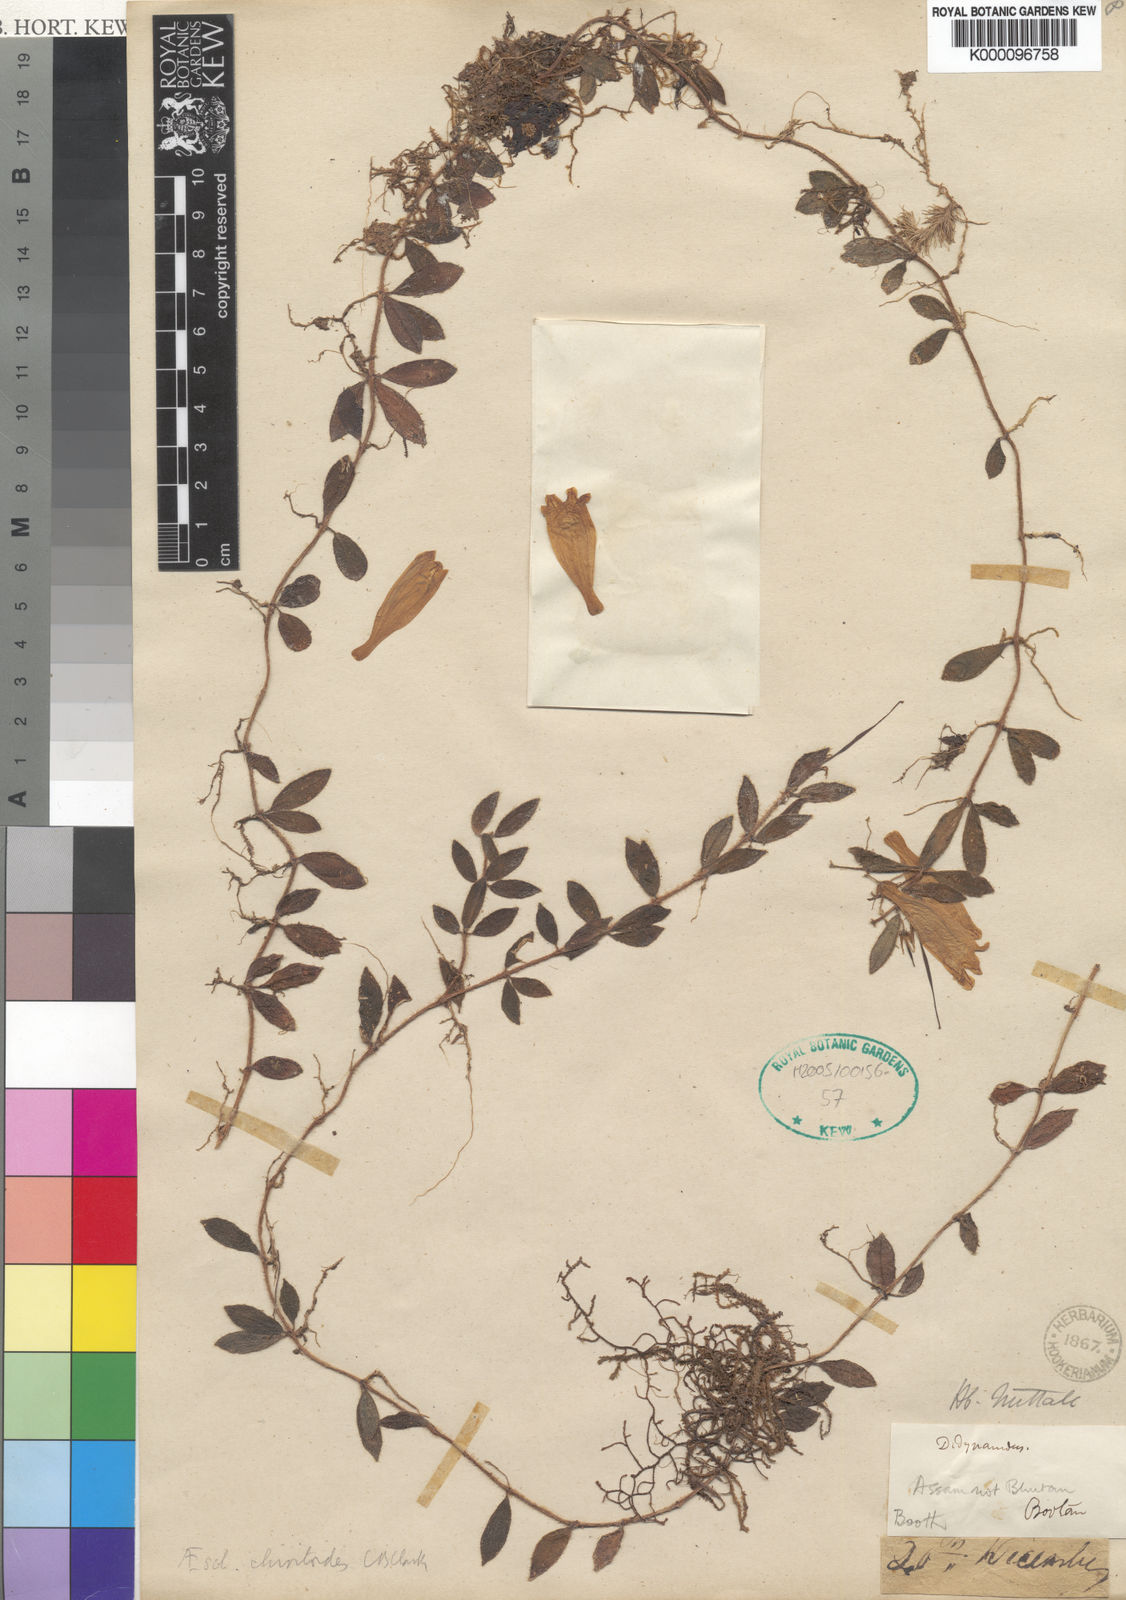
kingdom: Plantae
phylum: Tracheophyta
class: Magnoliopsida
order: Lamiales
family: Gesneriaceae
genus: Aeschynanthus
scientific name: Aeschynanthus
